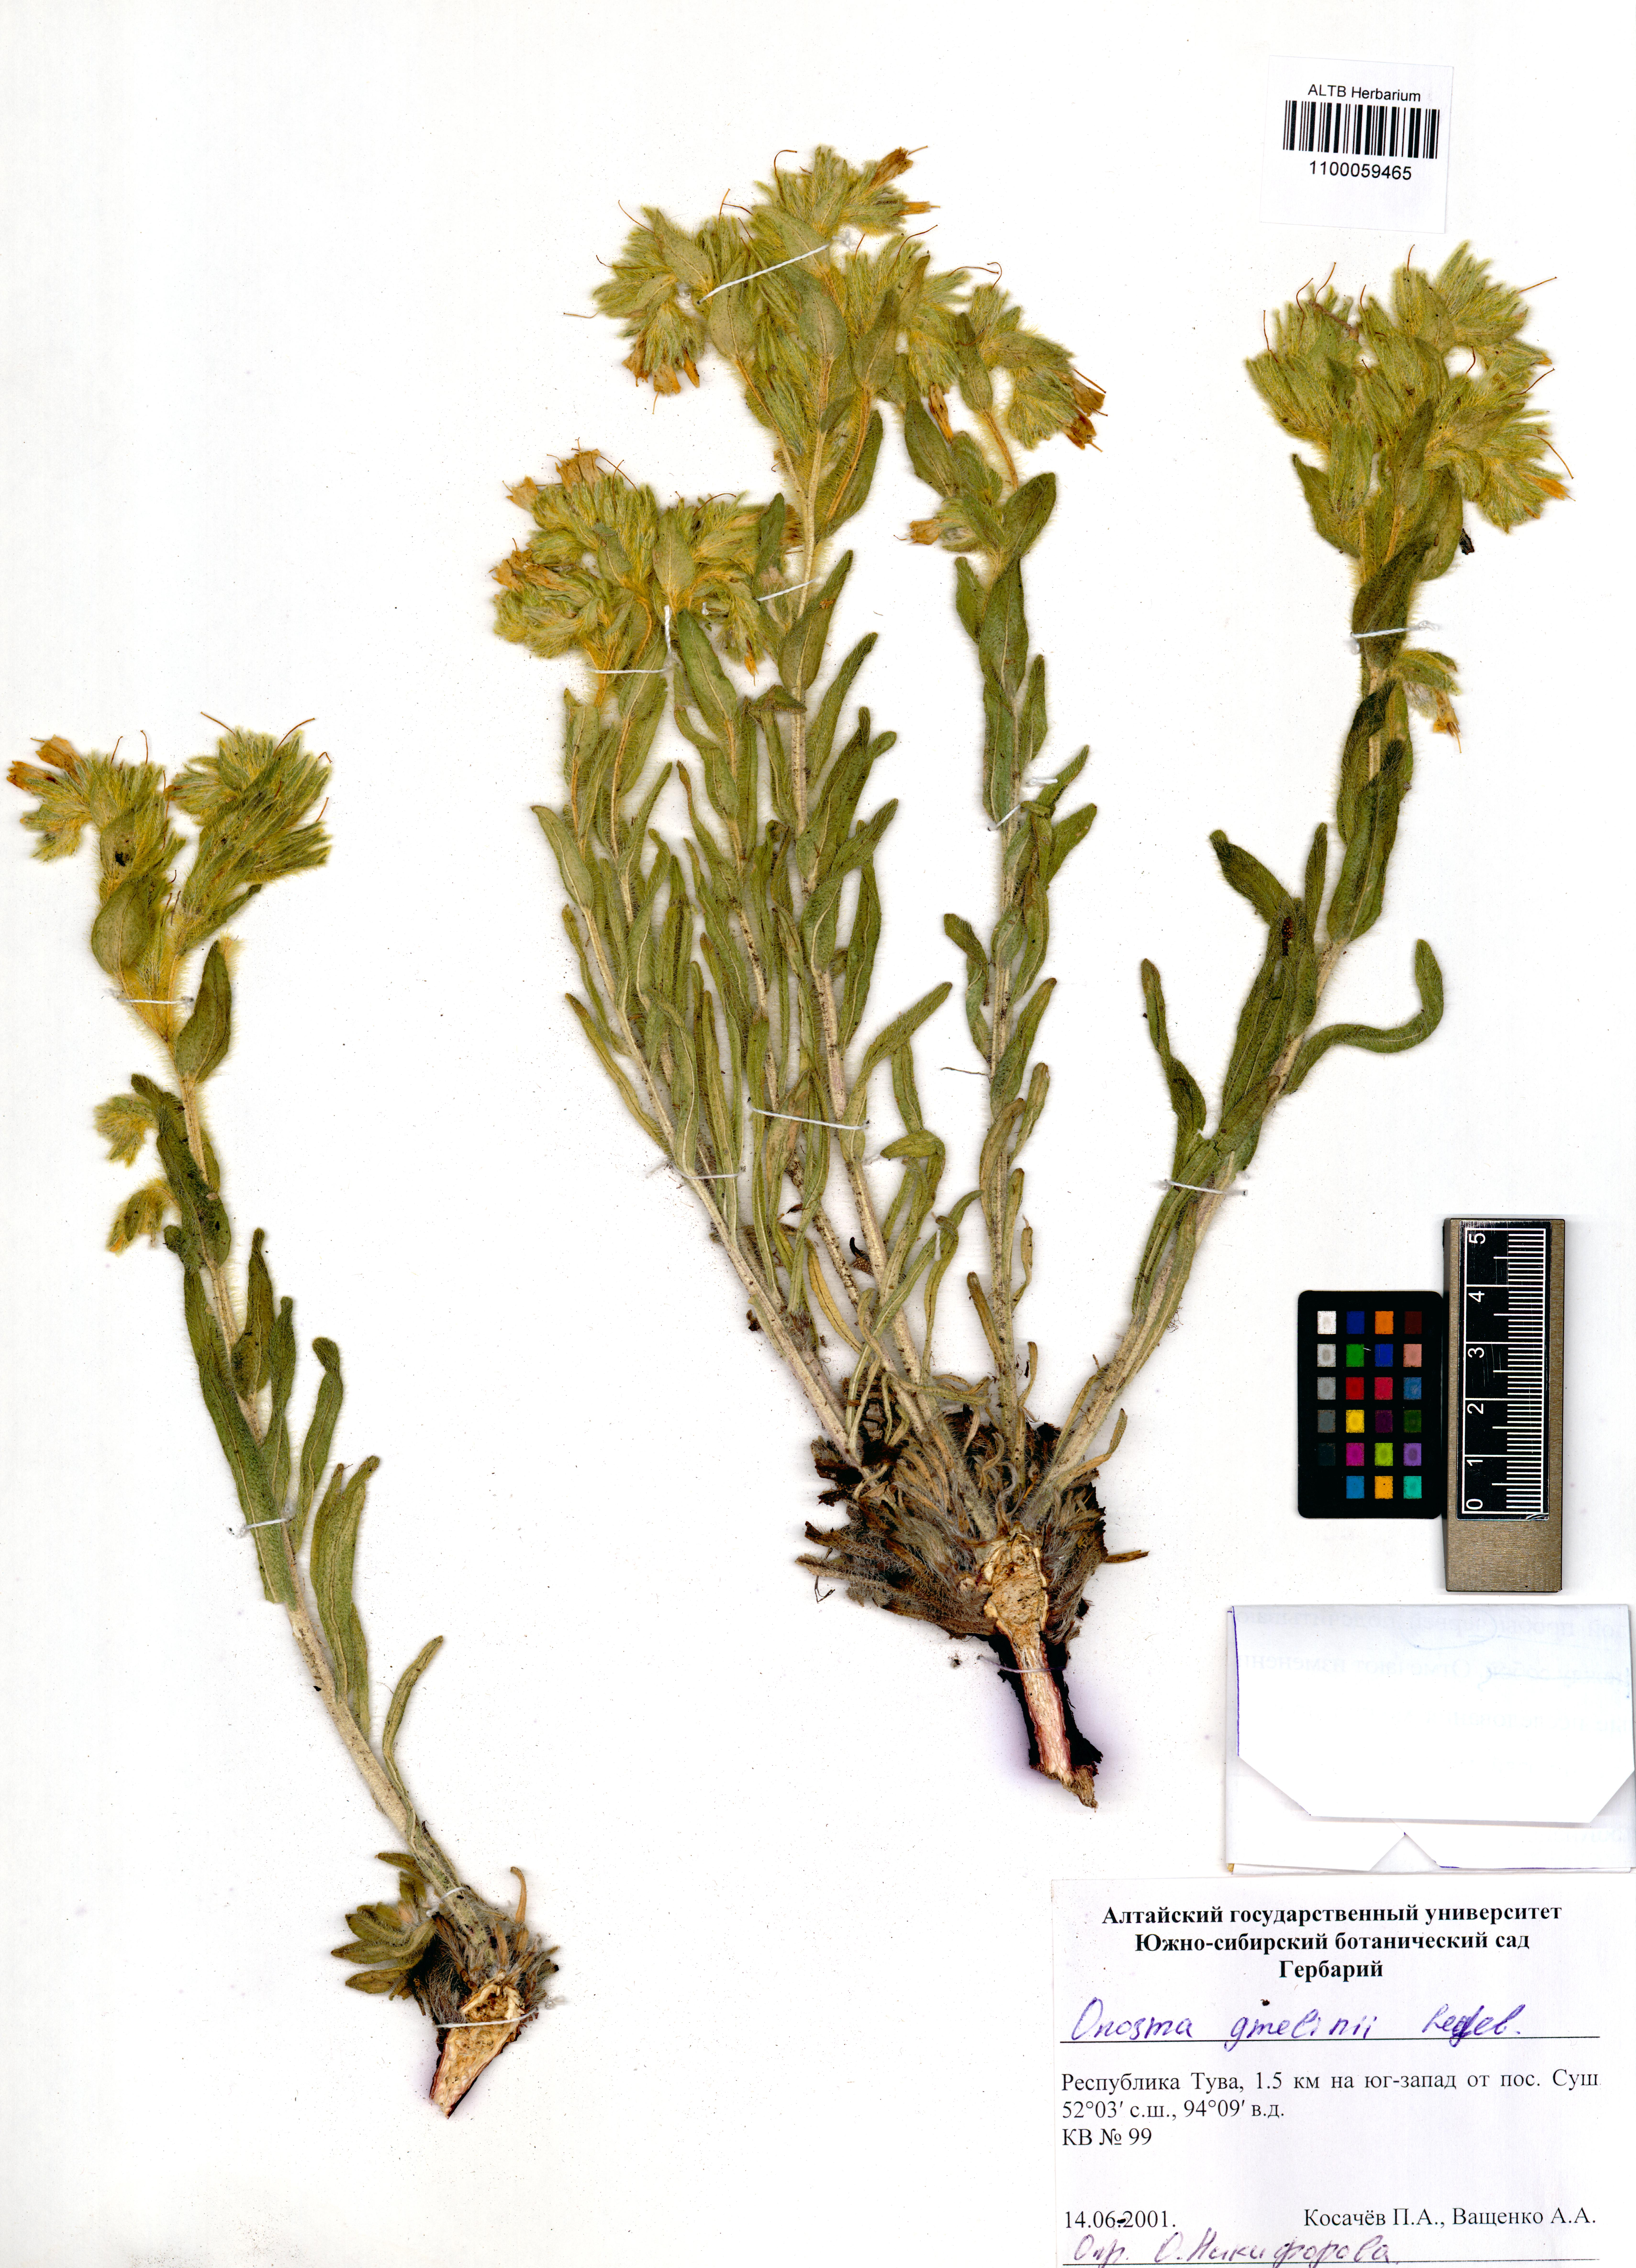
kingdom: Plantae
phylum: Tracheophyta
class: Magnoliopsida
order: Boraginales
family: Boraginaceae
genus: Onosma
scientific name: Onosma gmelinii
